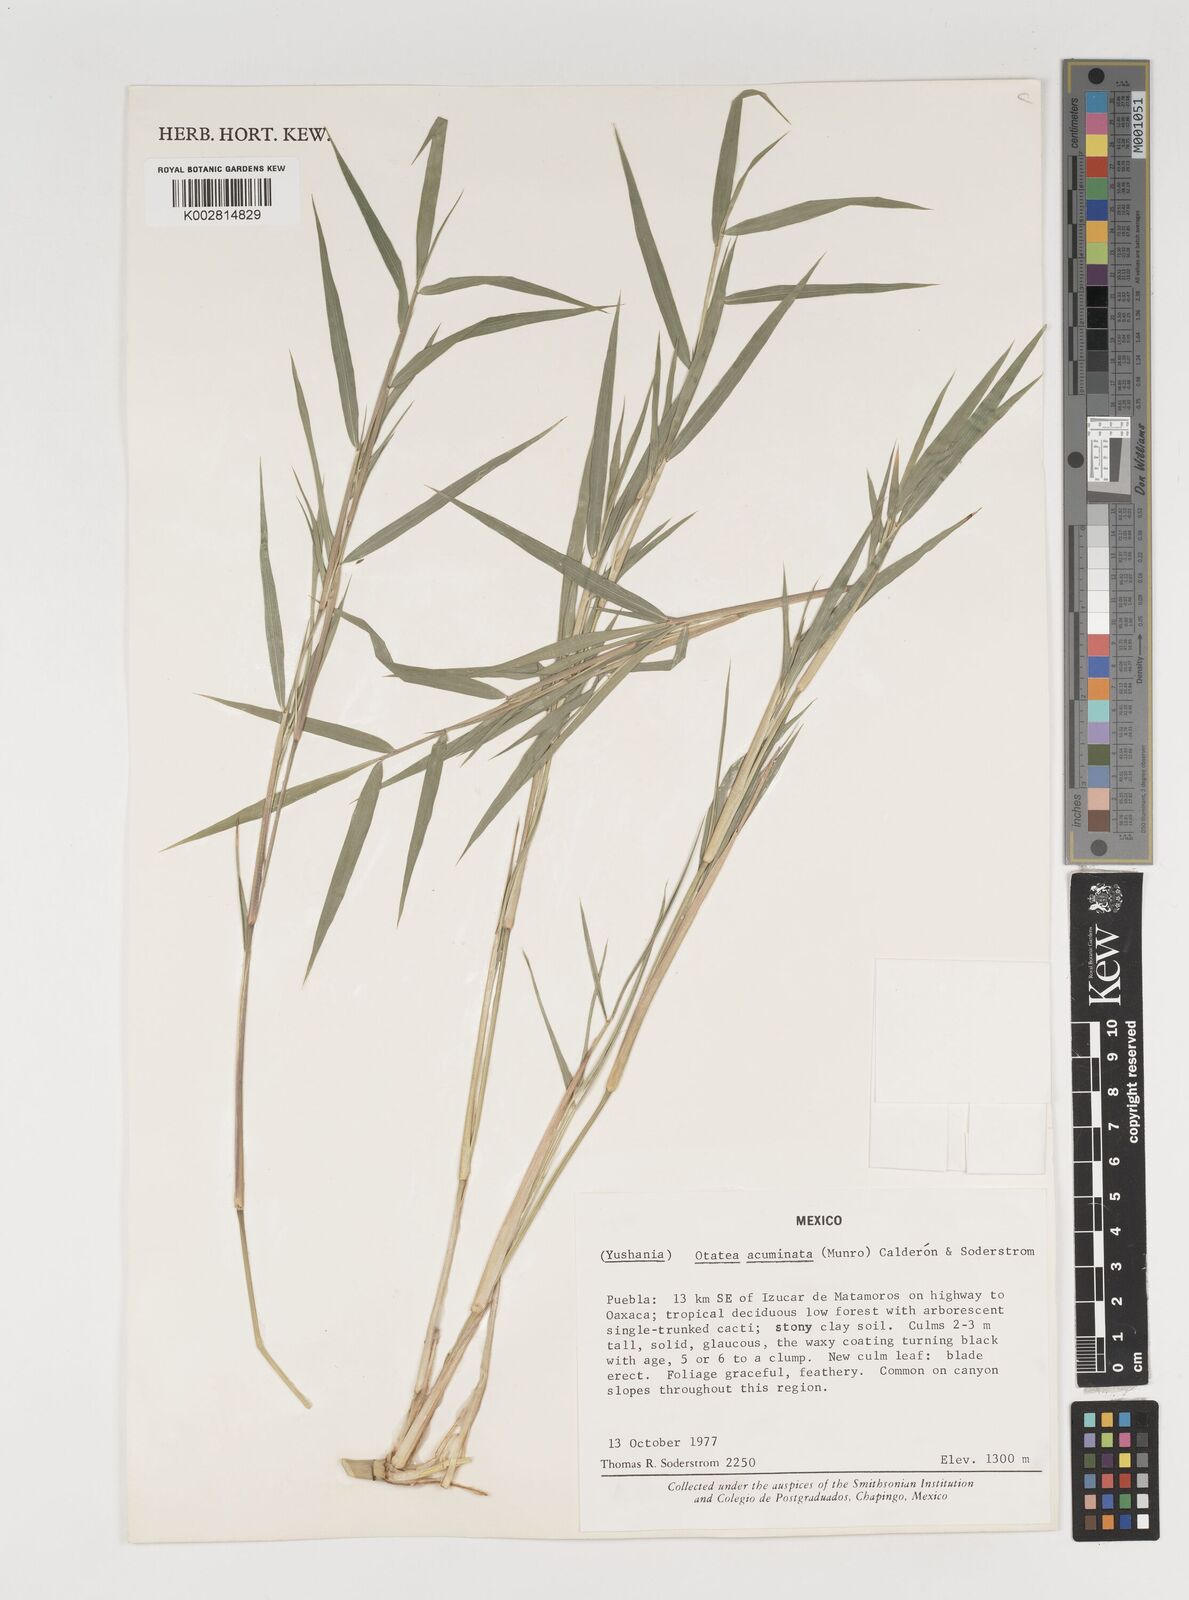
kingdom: Plantae
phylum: Tracheophyta
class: Liliopsida
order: Poales
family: Poaceae
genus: Olmeca
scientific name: Olmeca
